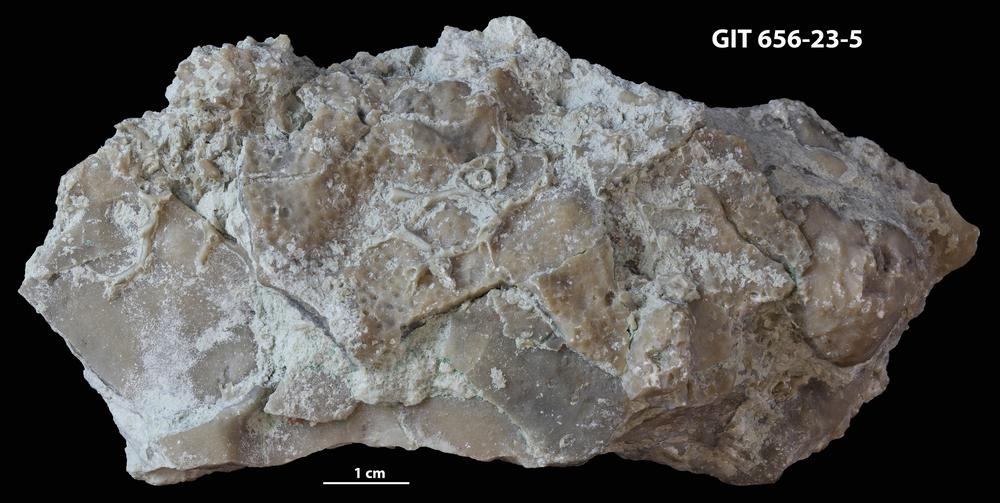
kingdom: Animalia
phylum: Porifera
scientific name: Porifera
